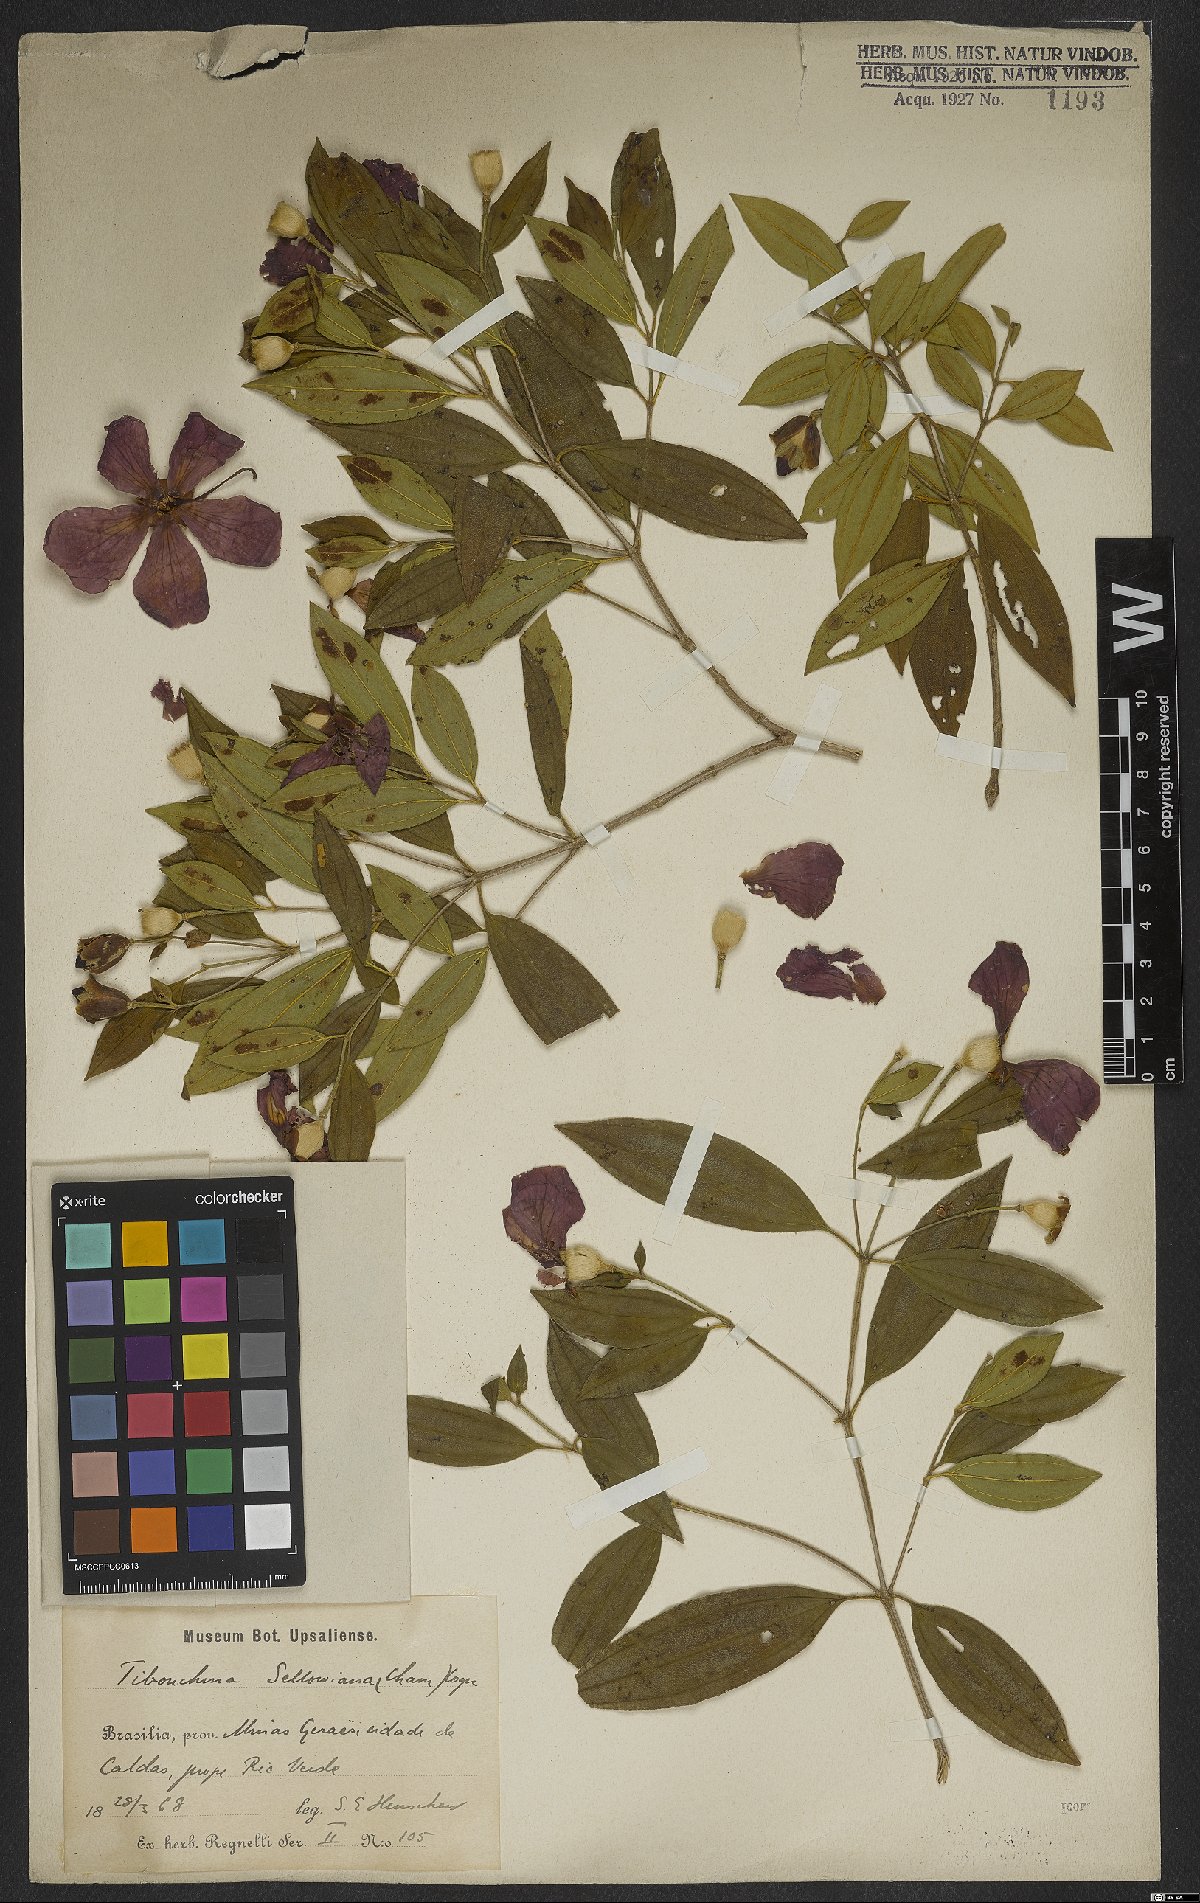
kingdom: Plantae
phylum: Tracheophyta
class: Magnoliopsida
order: Myrtales
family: Melastomataceae
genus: Pleroma
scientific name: Pleroma sellowianum
